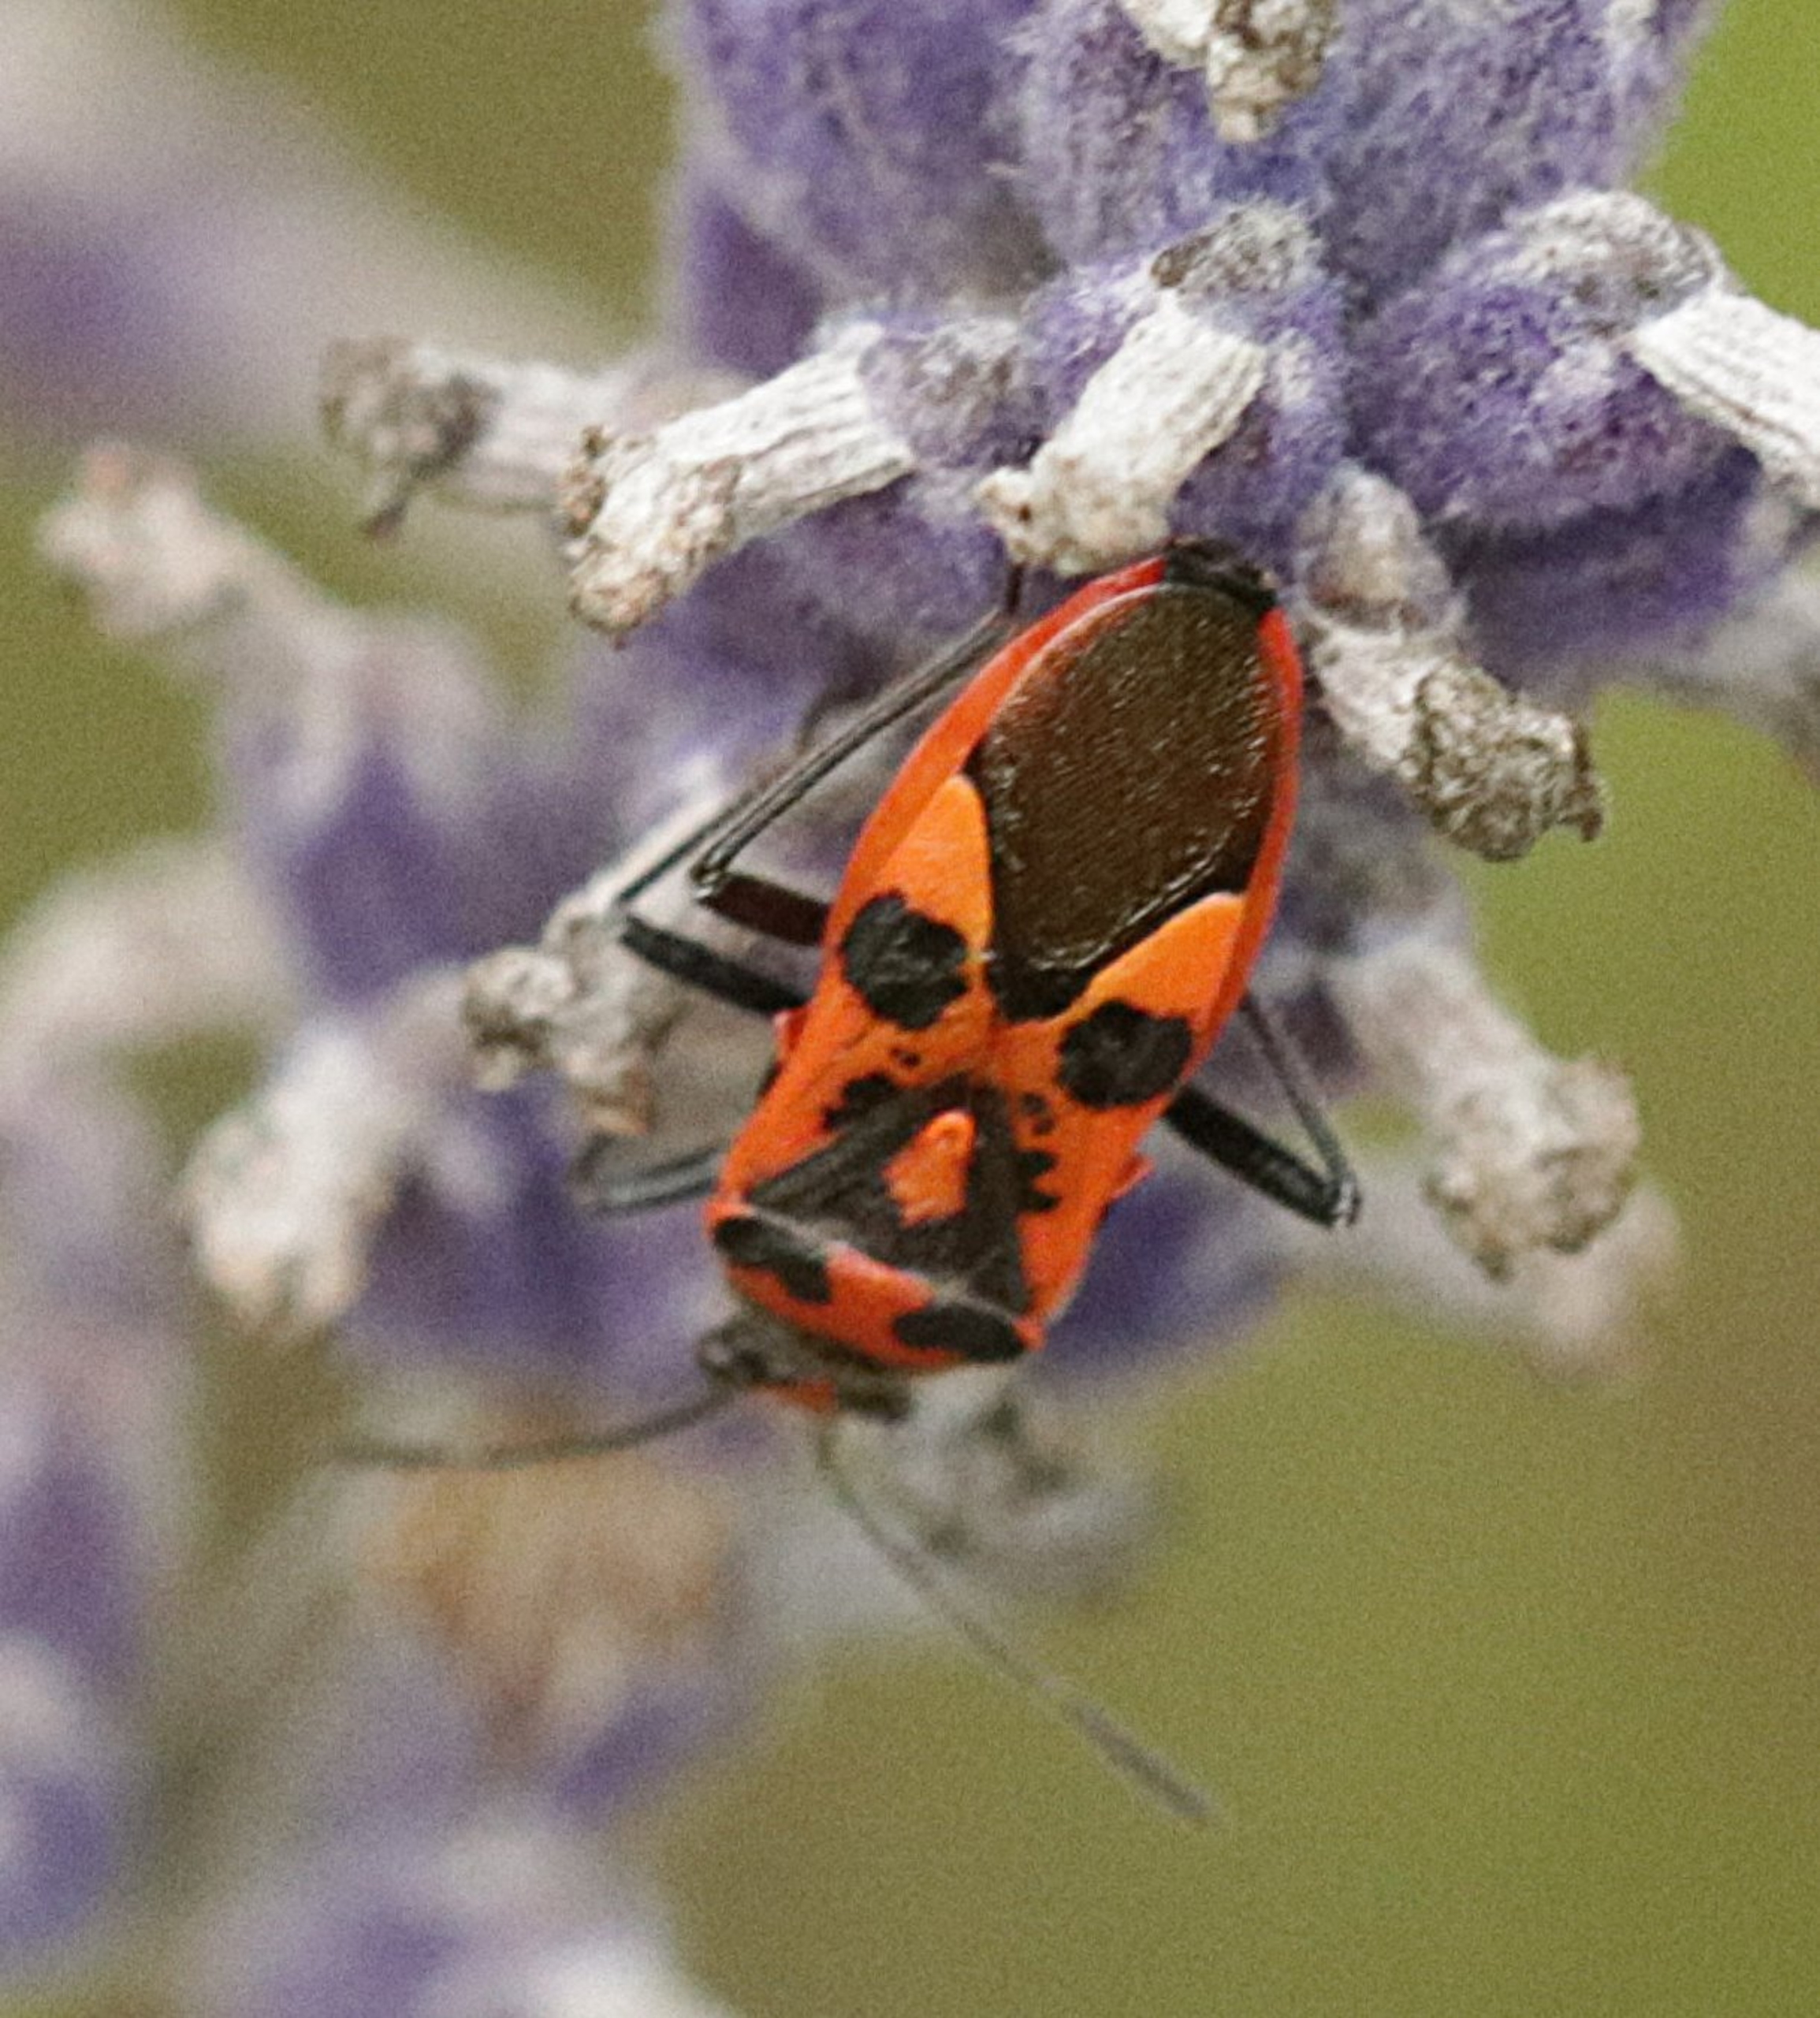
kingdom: Animalia
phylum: Arthropoda
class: Insecta
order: Hemiptera
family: Rhopalidae
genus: Corizus
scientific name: Corizus hyoscyami
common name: Rød kanttæge
